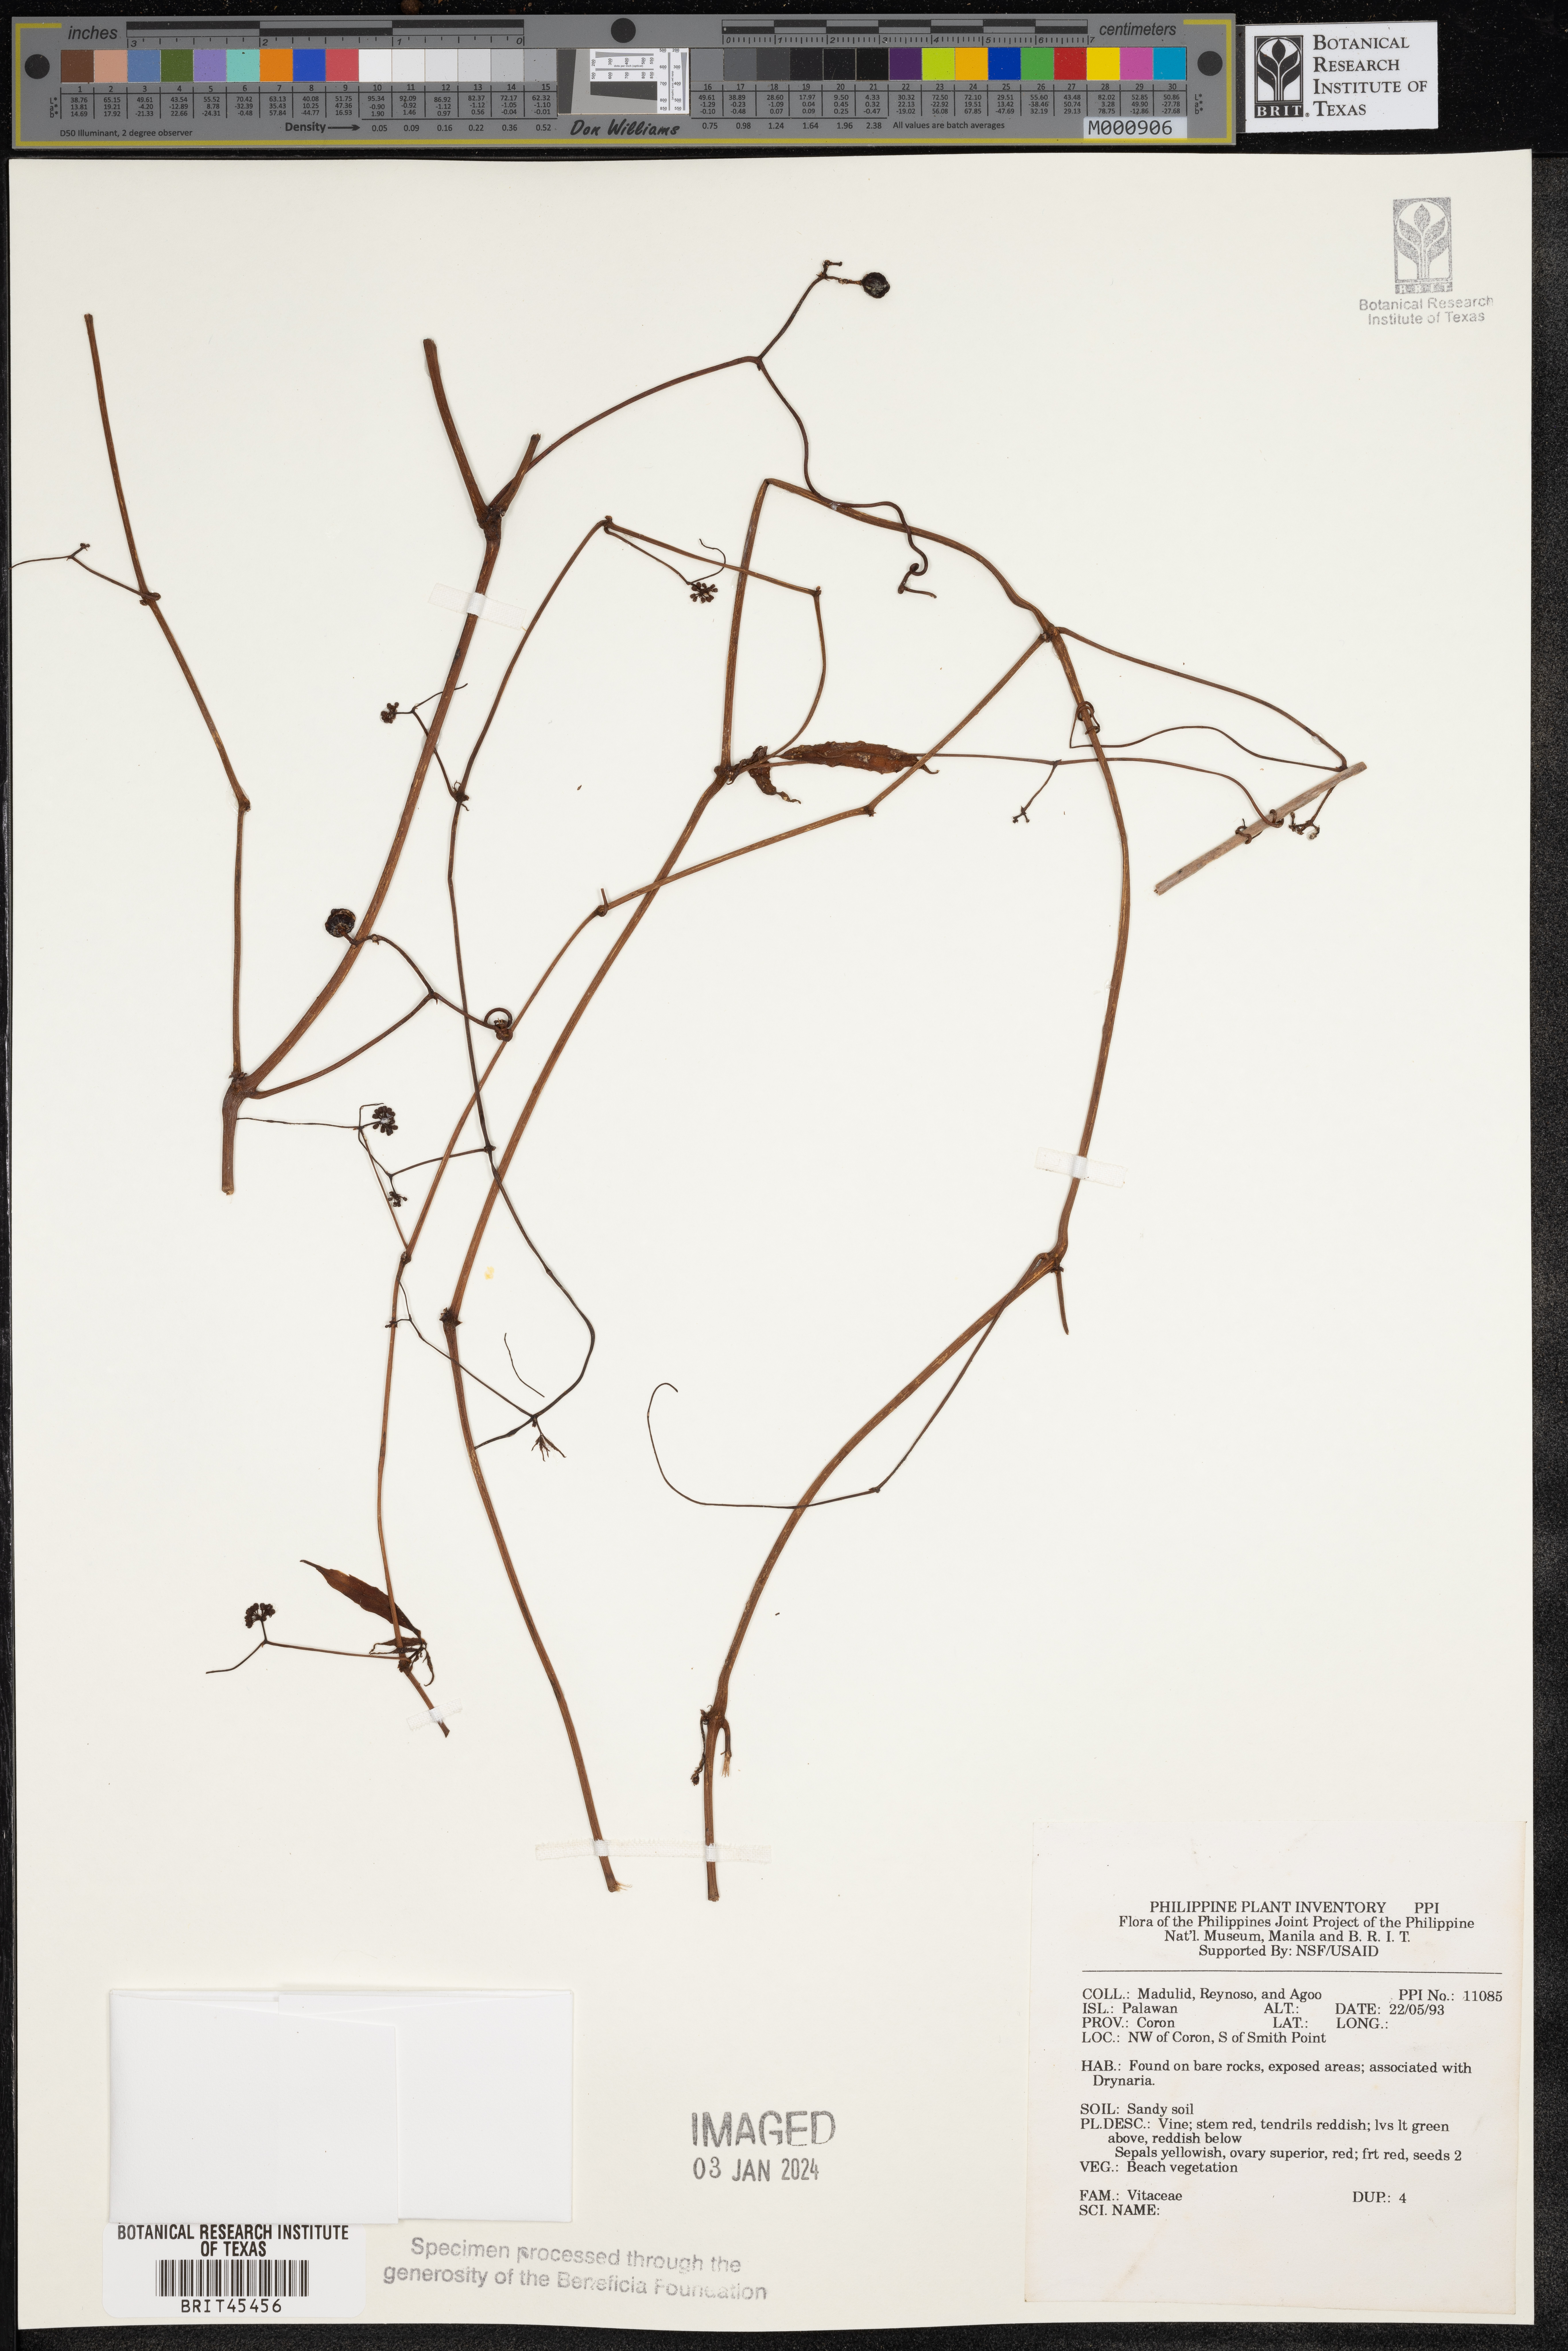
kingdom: Plantae
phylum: Tracheophyta
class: Magnoliopsida
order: Vitales
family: Vitaceae
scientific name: Vitaceae
